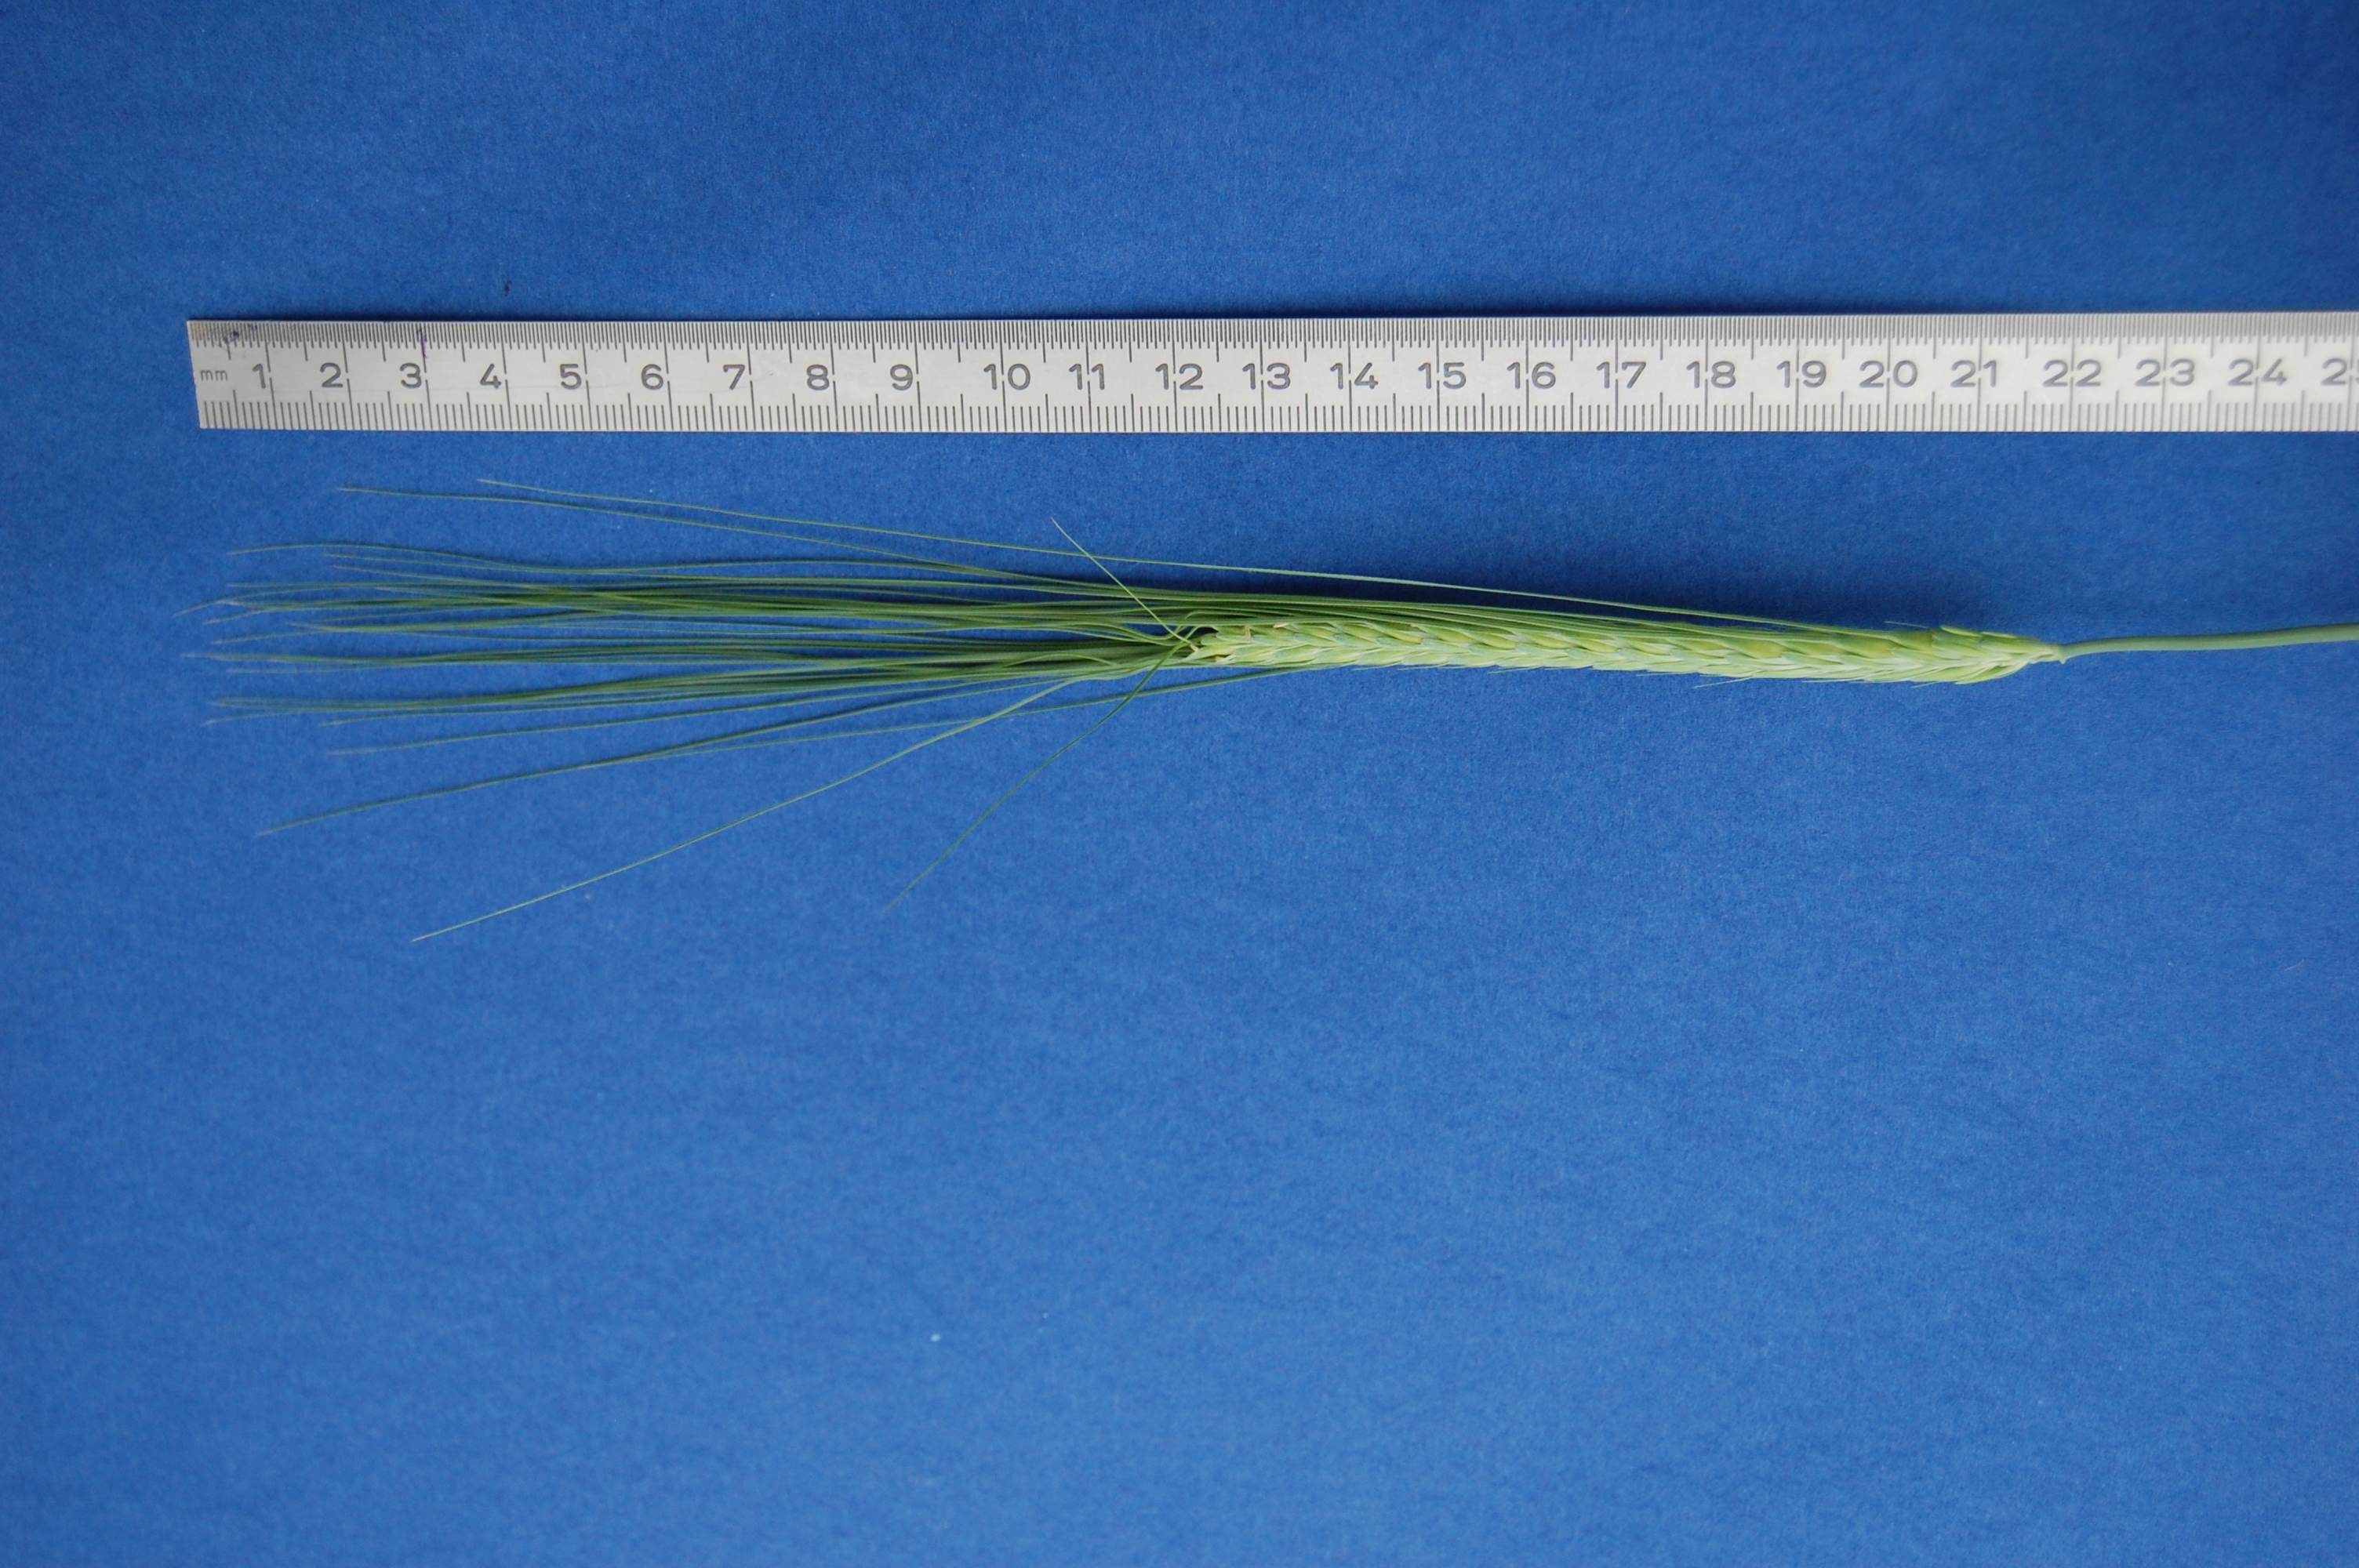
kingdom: Plantae
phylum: Tracheophyta
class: Liliopsida
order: Poales
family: Poaceae
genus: Hordeum
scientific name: Hordeum vulgare
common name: Common barley
